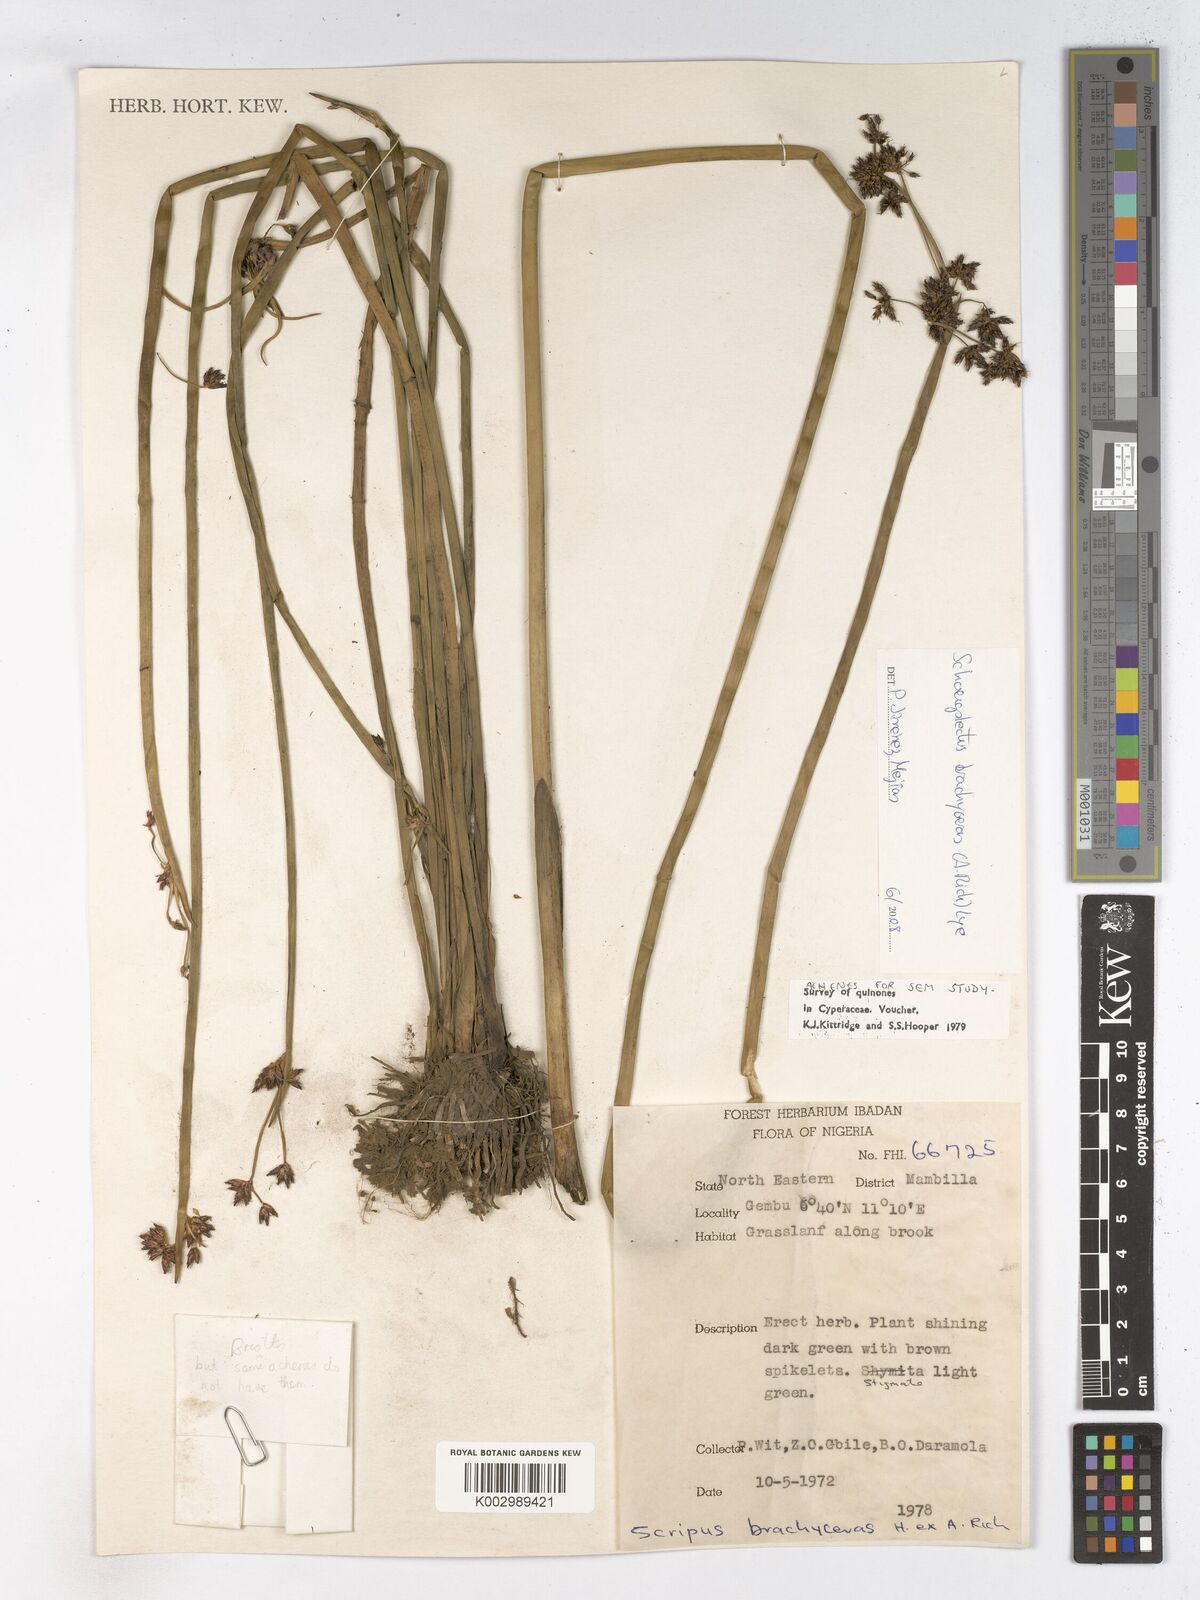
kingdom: Plantae
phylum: Tracheophyta
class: Liliopsida
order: Poales
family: Cyperaceae
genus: Schoenoplectiella
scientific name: Schoenoplectiella corymbosa
